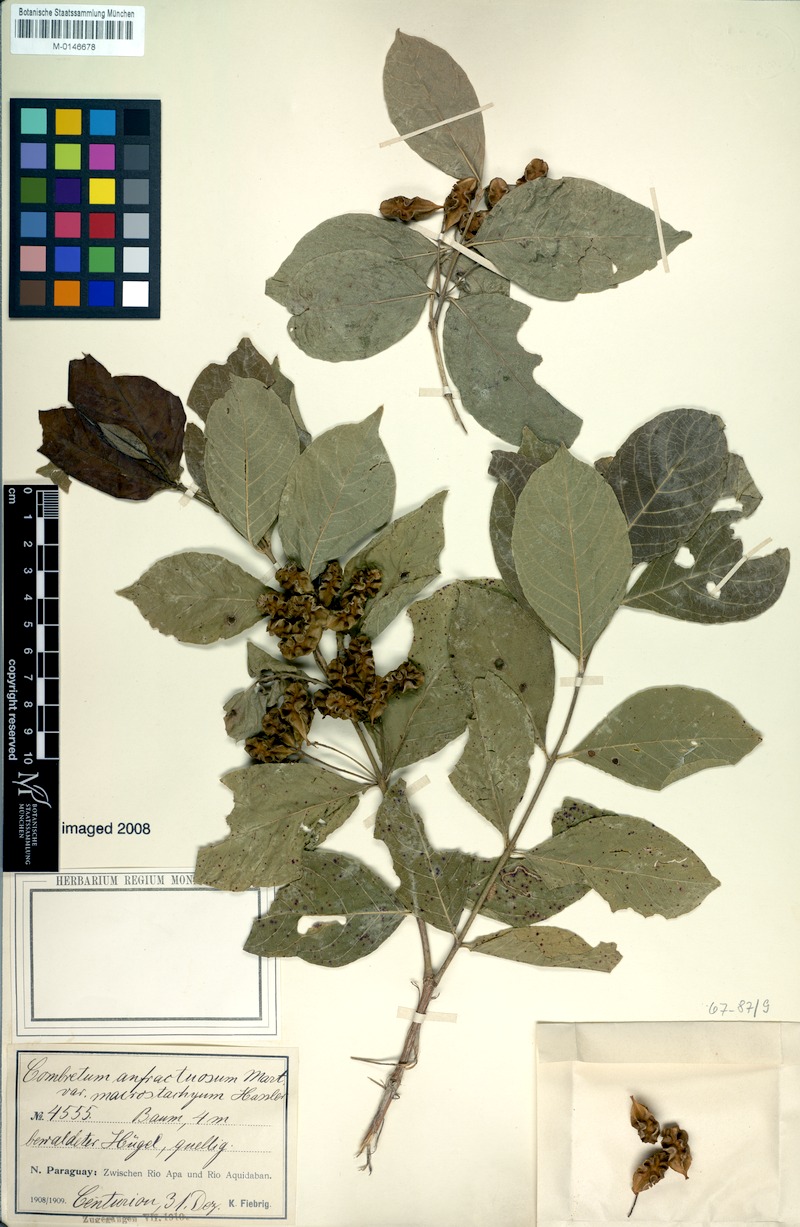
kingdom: Plantae
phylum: Tracheophyta
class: Magnoliopsida
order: Myrtales
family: Combretaceae
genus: Combretum
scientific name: Combretum duarteanum
